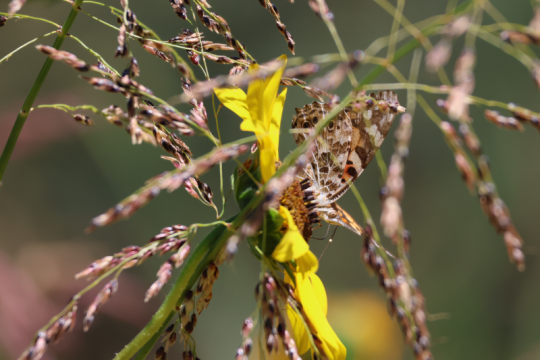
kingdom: Animalia
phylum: Arthropoda
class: Insecta
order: Lepidoptera
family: Nymphalidae
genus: Vanessa
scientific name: Vanessa cardui
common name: Painted Lady
